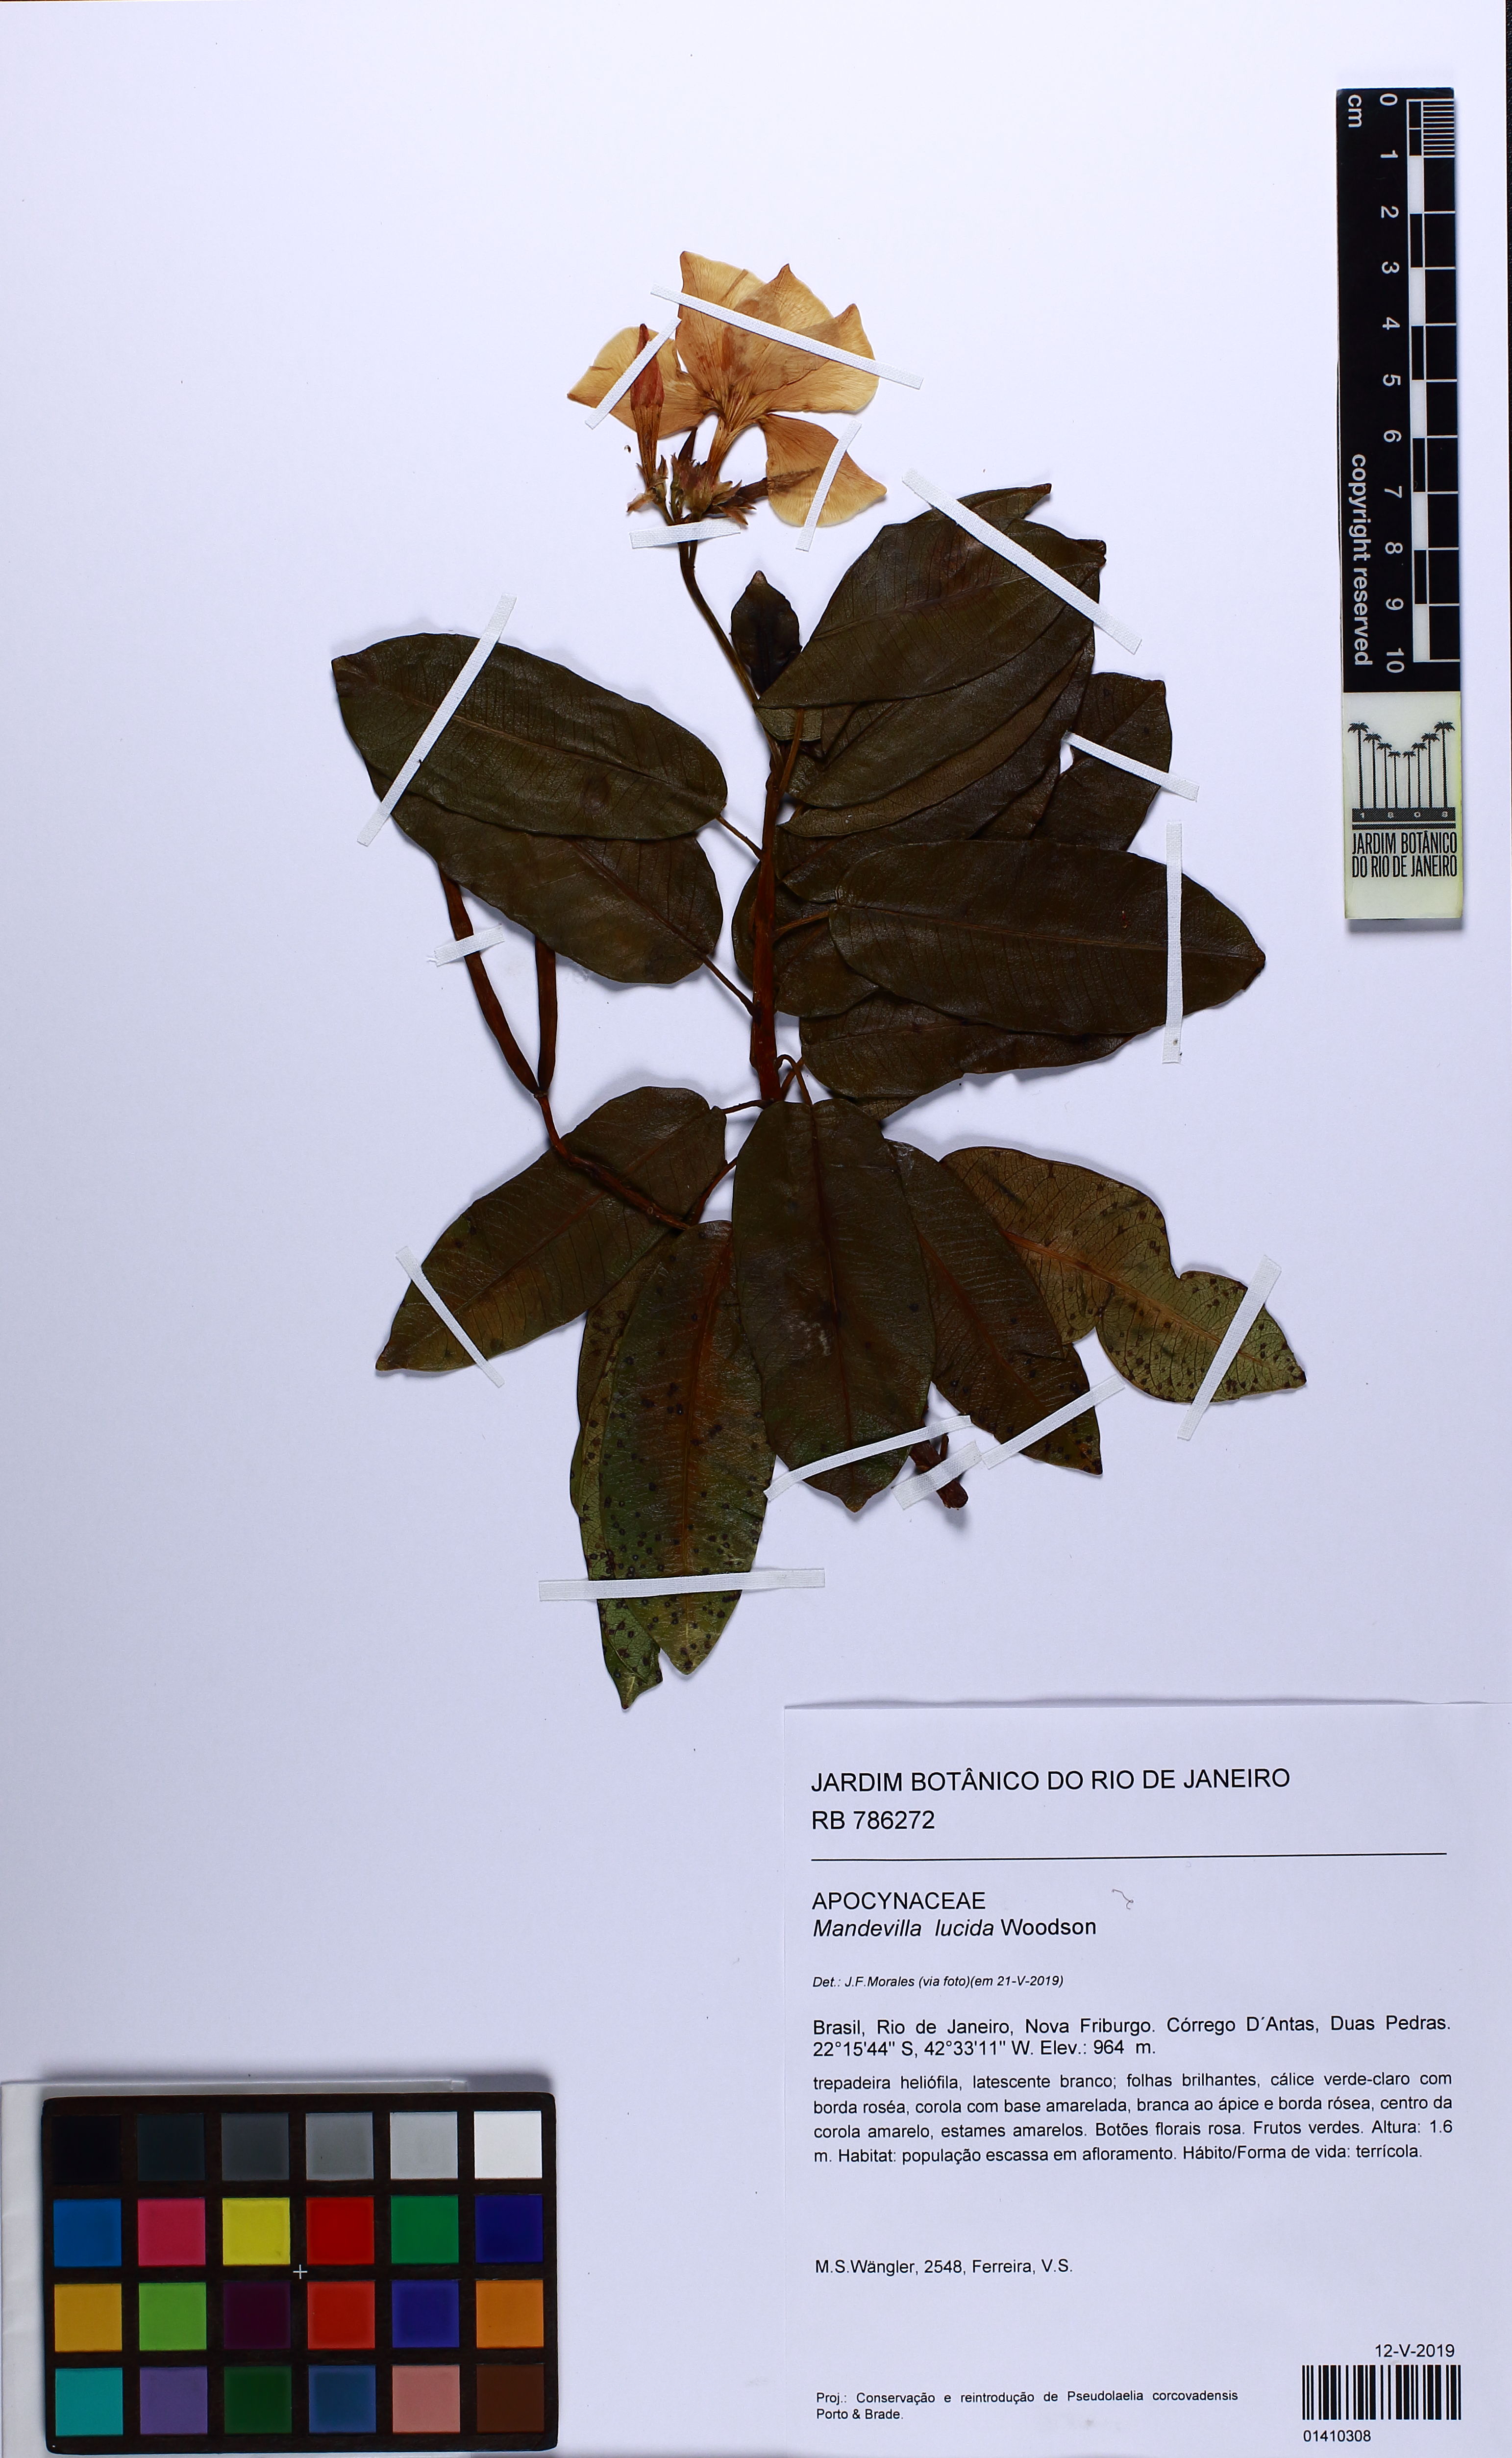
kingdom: Plantae
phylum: Tracheophyta
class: Magnoliopsida
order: Gentianales
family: Apocynaceae
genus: Mandevilla
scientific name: Mandevilla lucida
